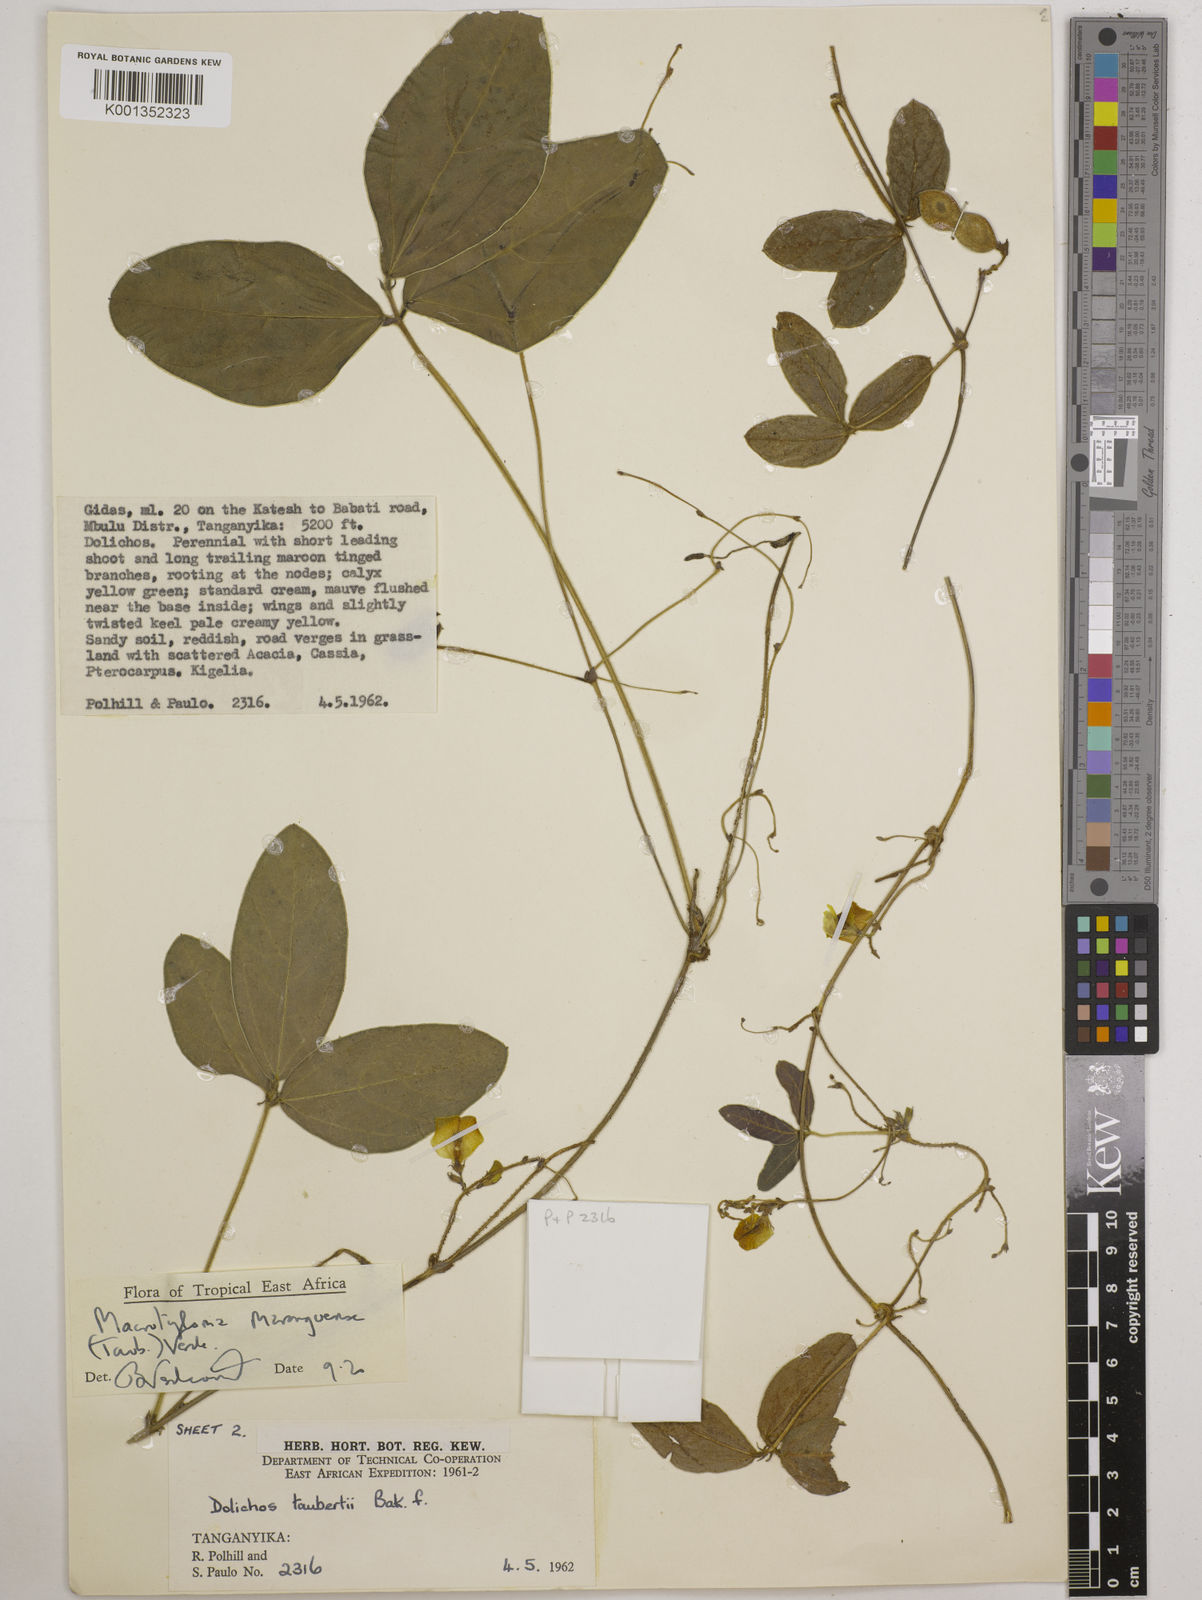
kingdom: Plantae
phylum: Tracheophyta
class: Magnoliopsida
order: Fabales
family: Fabaceae
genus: Macrotyloma
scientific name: Macrotyloma maranguense
